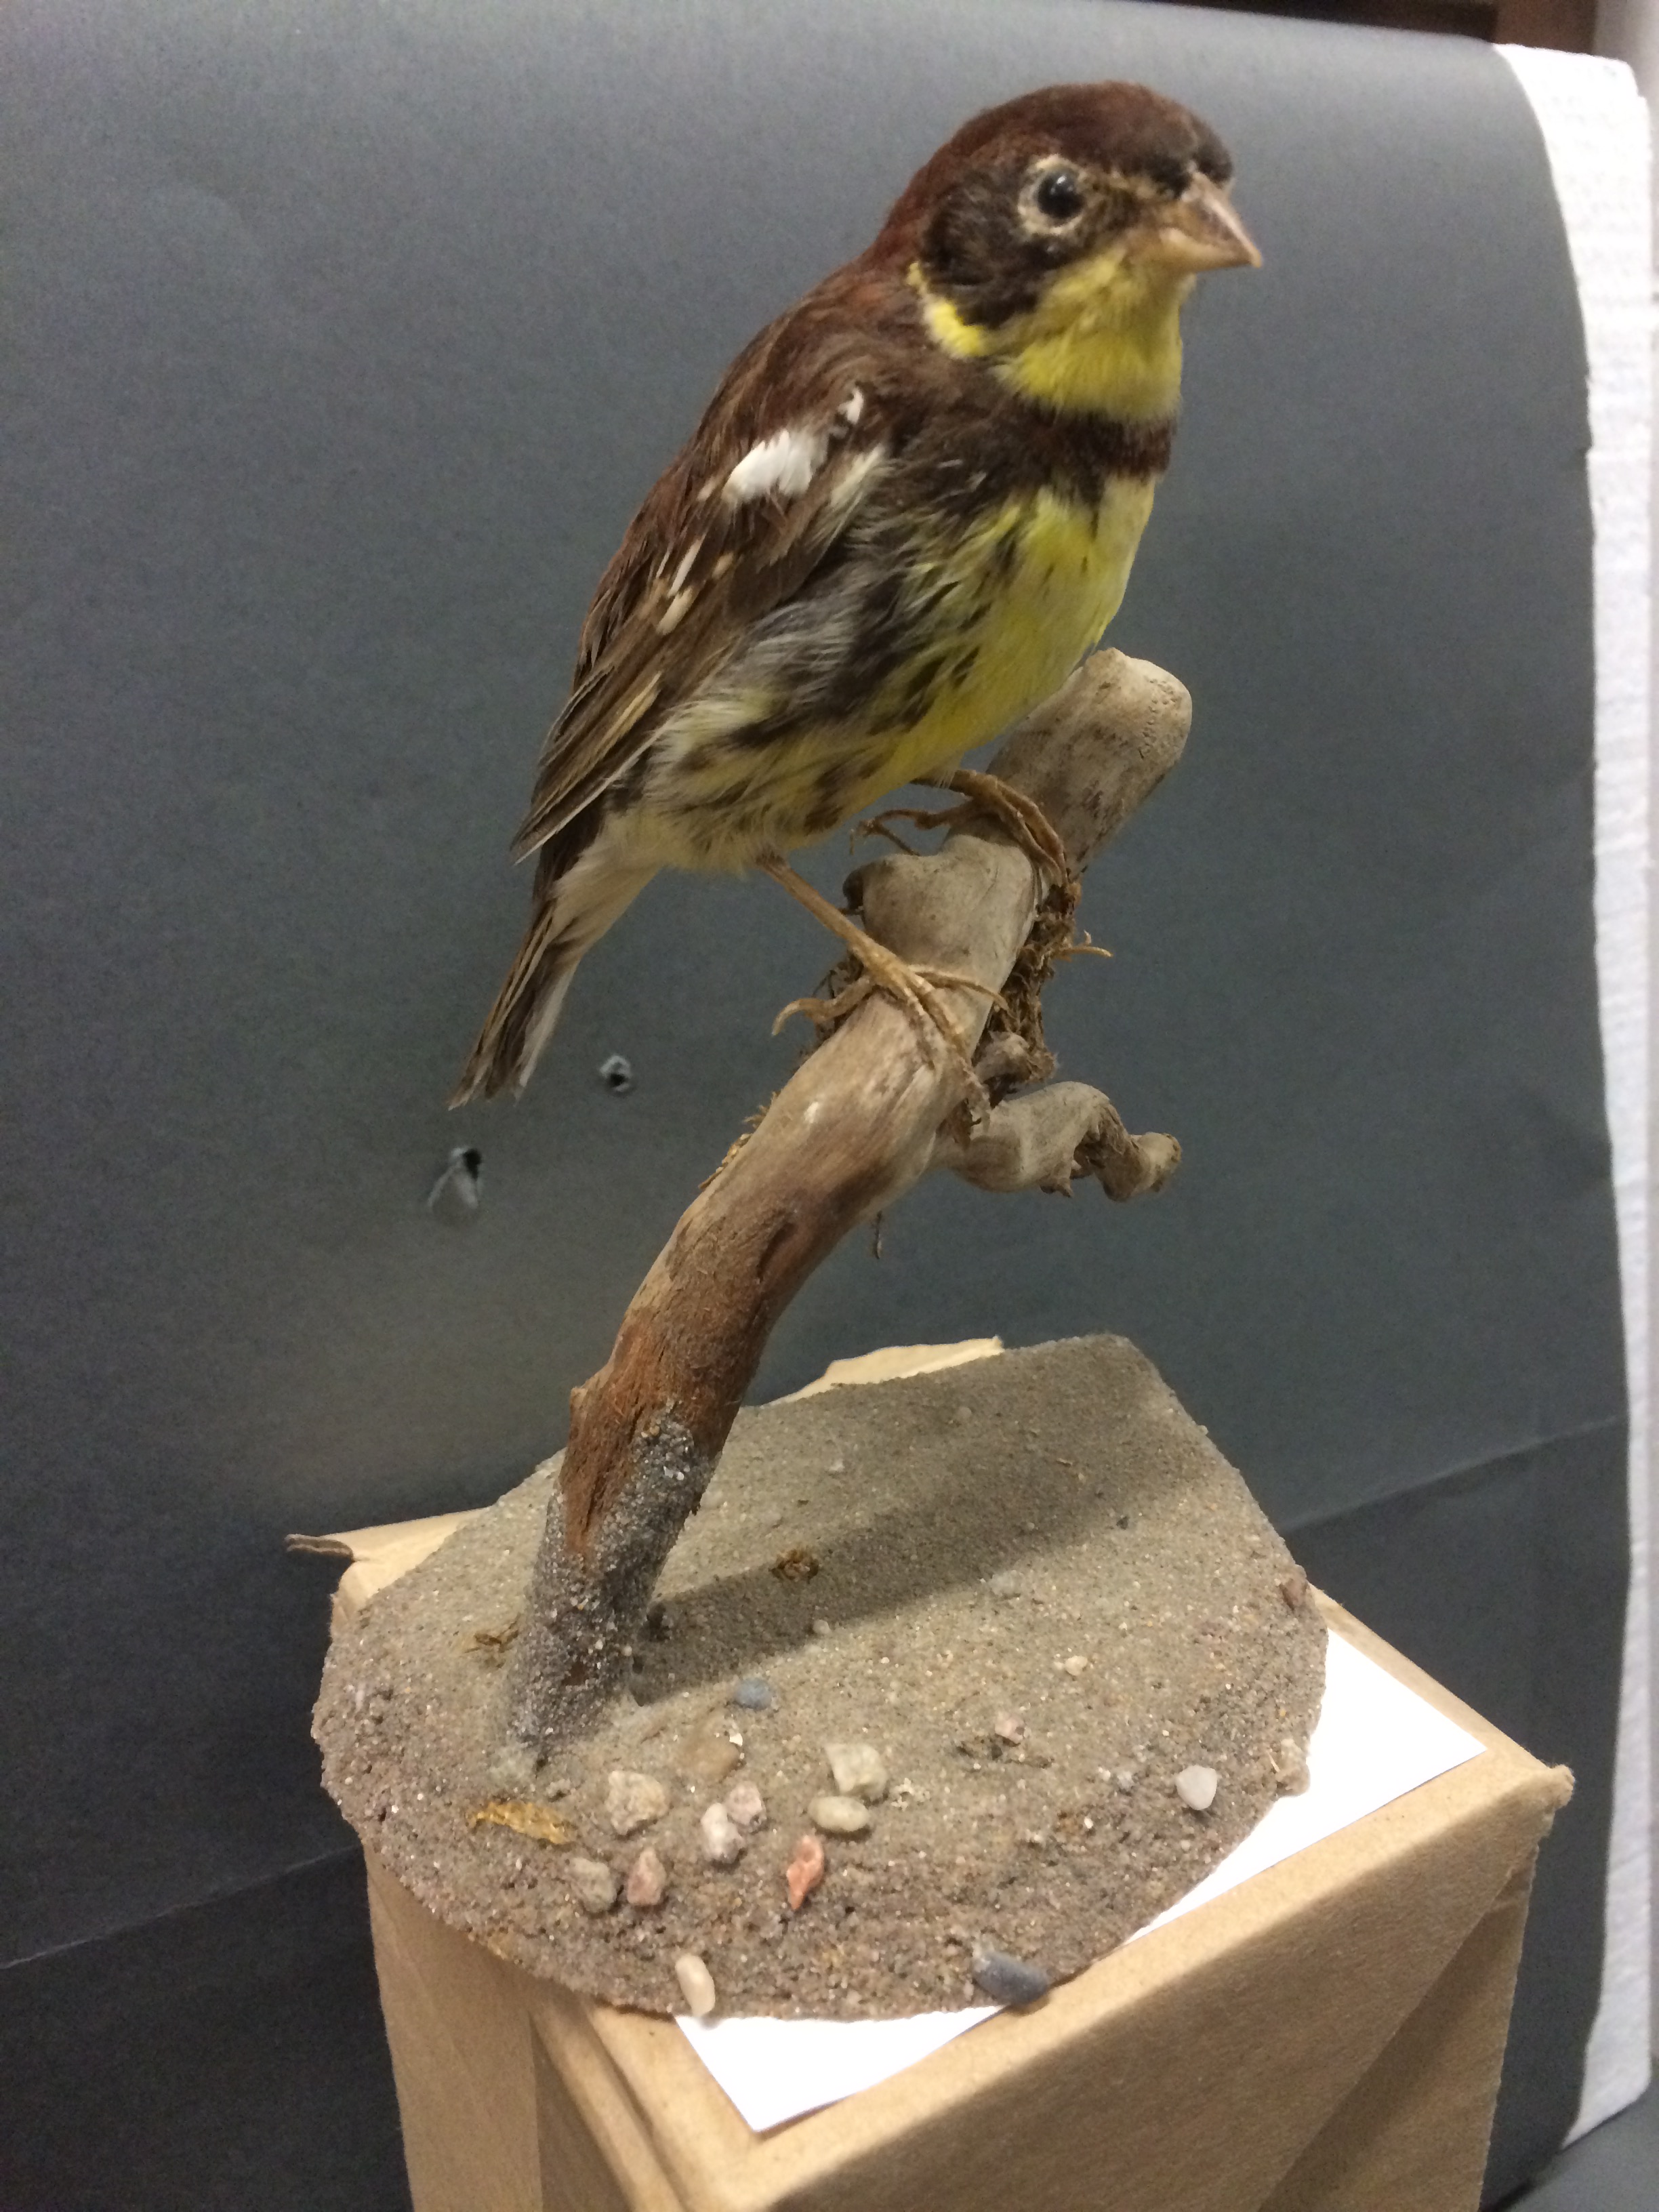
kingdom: Animalia
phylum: Chordata
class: Aves
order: Passeriformes
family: Emberizidae
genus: Emberiza
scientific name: Emberiza aureola
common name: Yellow-breasted bunting
